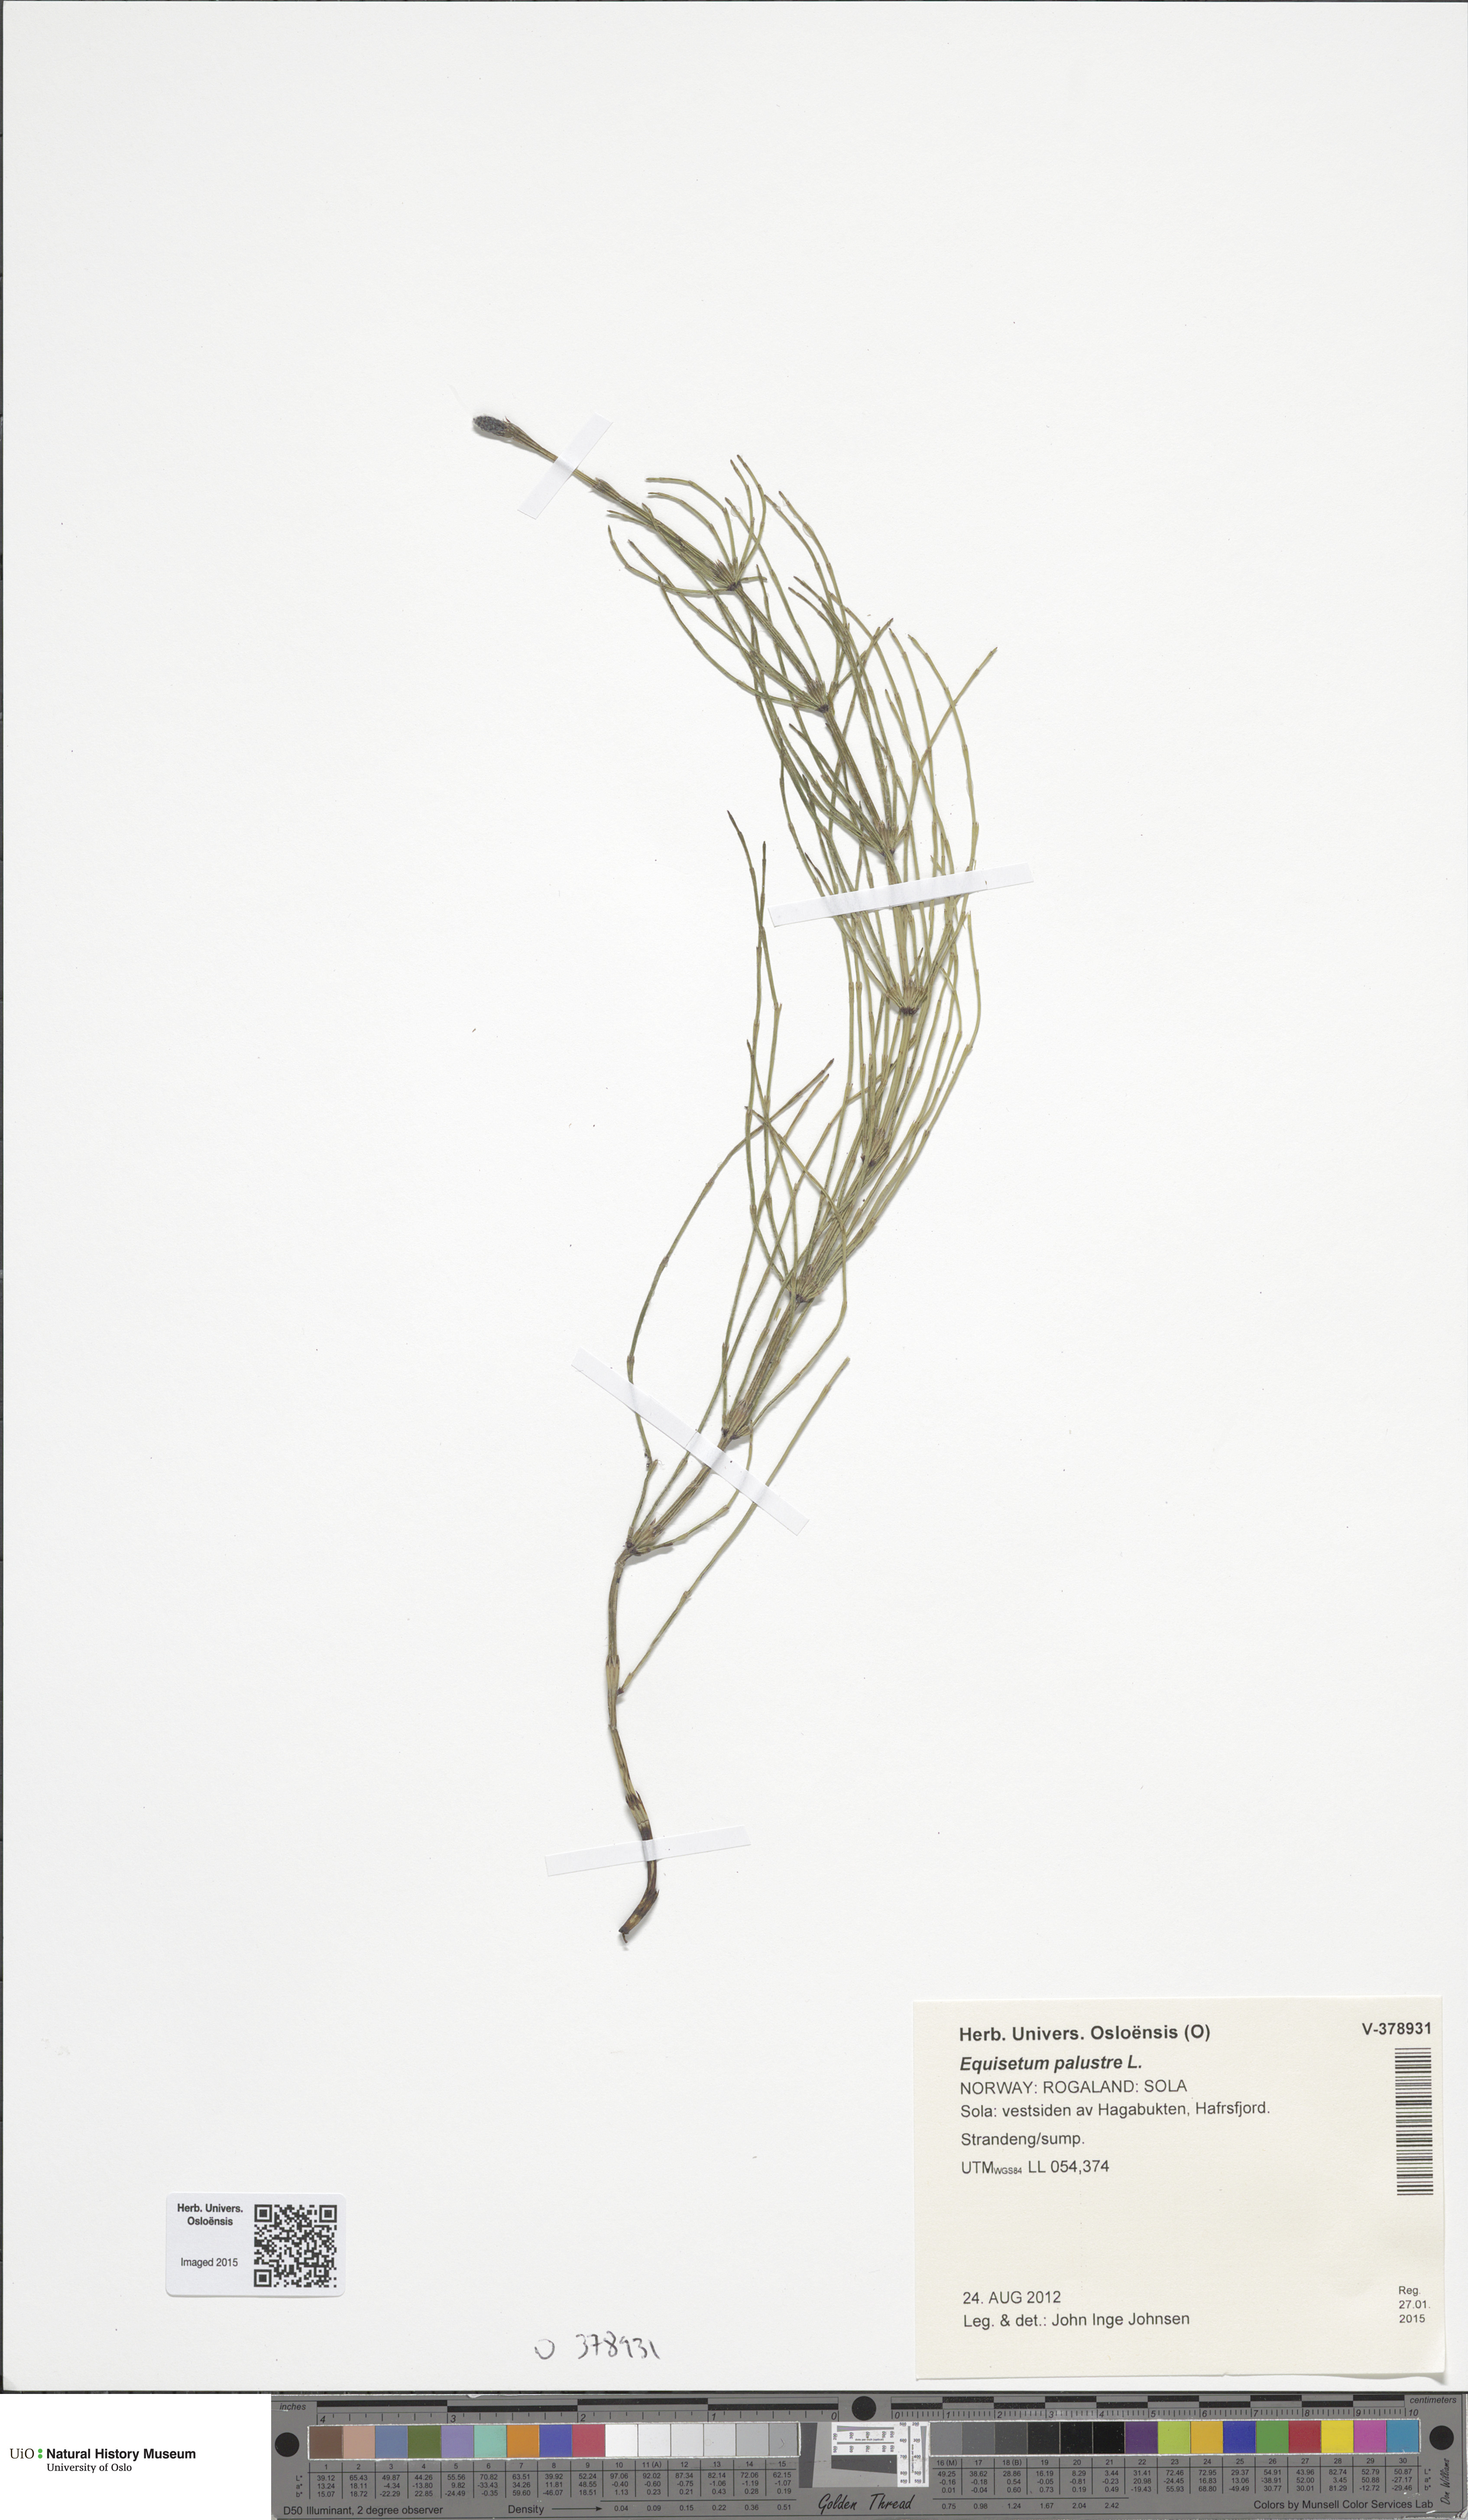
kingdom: Plantae
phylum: Tracheophyta
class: Polypodiopsida
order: Equisetales
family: Equisetaceae
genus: Equisetum
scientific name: Equisetum palustre
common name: Marsh horsetail
